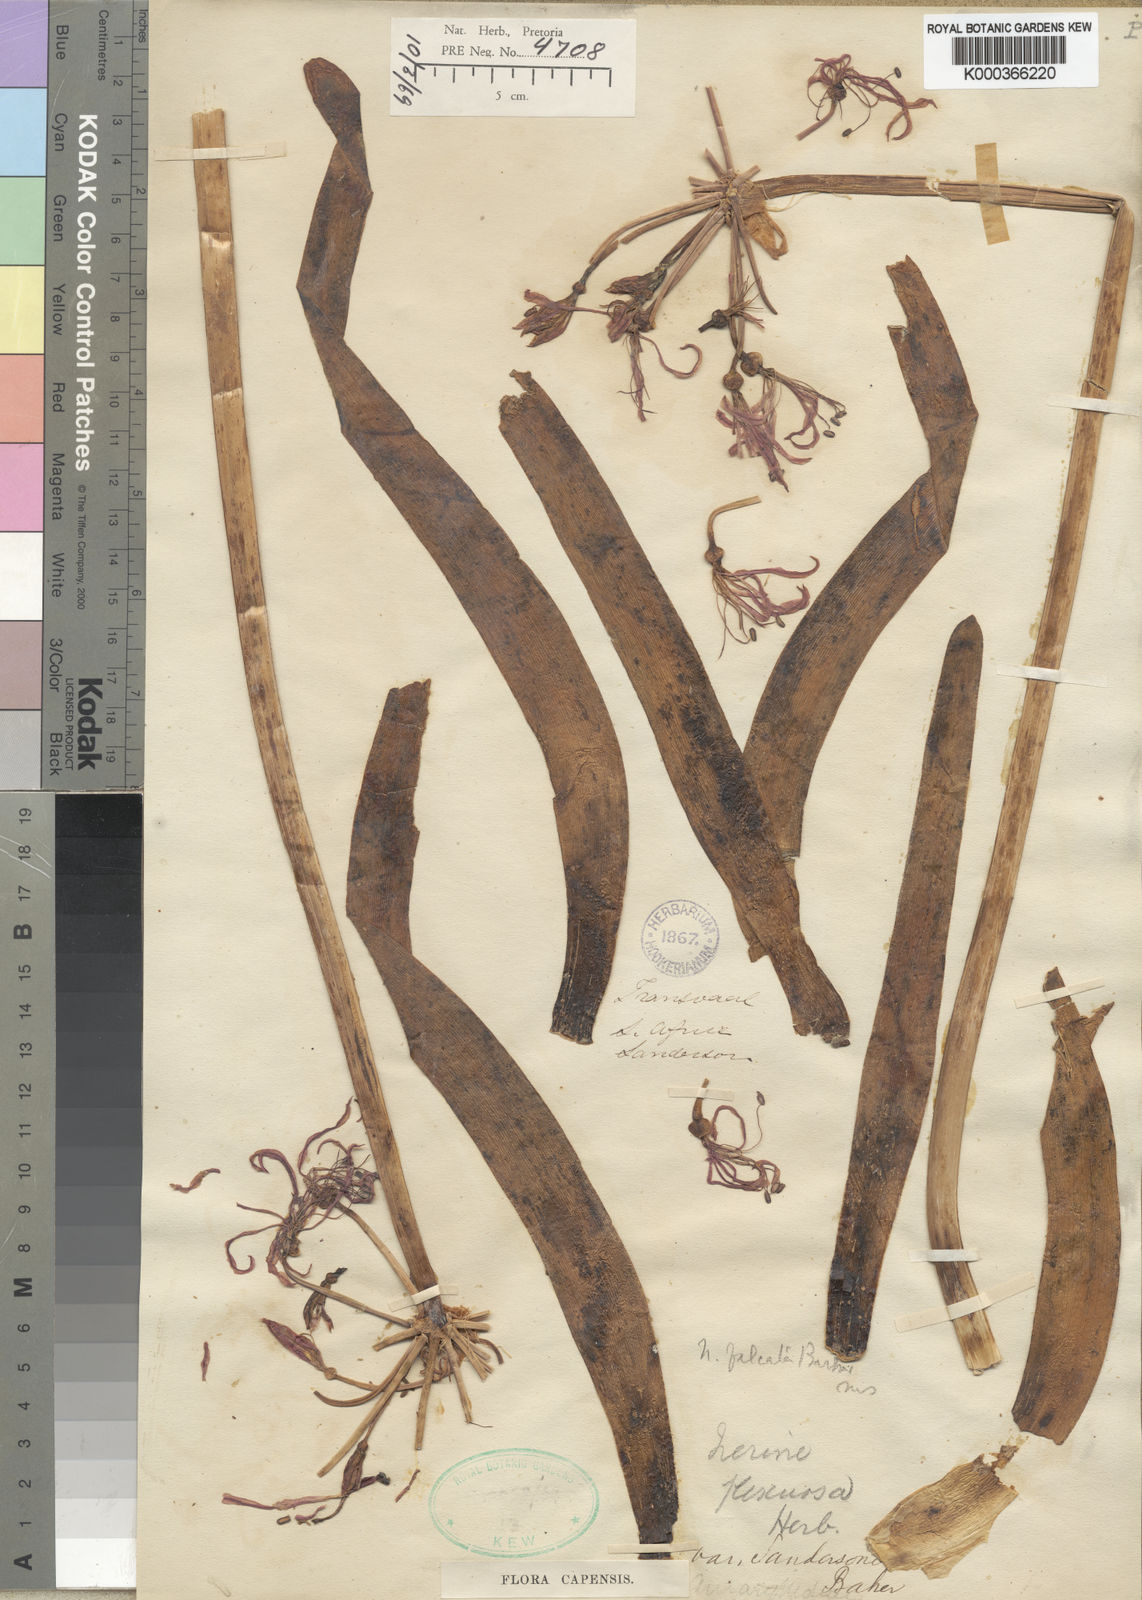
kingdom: Plantae
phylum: Tracheophyta
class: Liliopsida
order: Asparagales
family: Amaryllidaceae
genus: Nerine
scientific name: Nerine undulata
